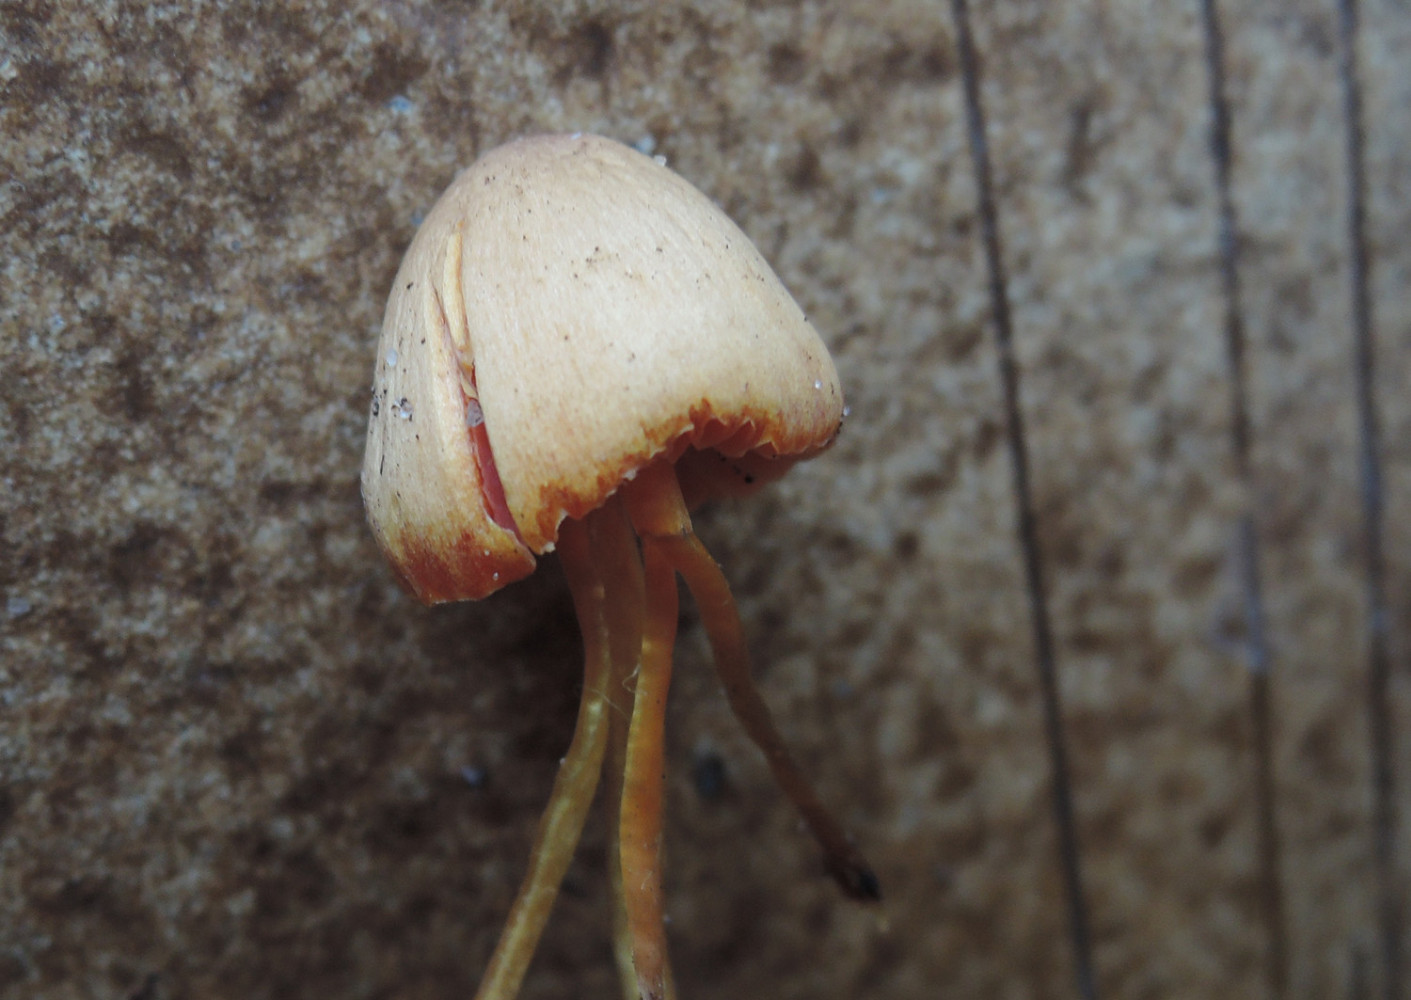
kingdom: Fungi
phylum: Basidiomycota
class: Agaricomycetes
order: Agaricales
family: Hygrophoraceae
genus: Hygrocybe
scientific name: Hygrocybe mucronella
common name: bitter vokshat
